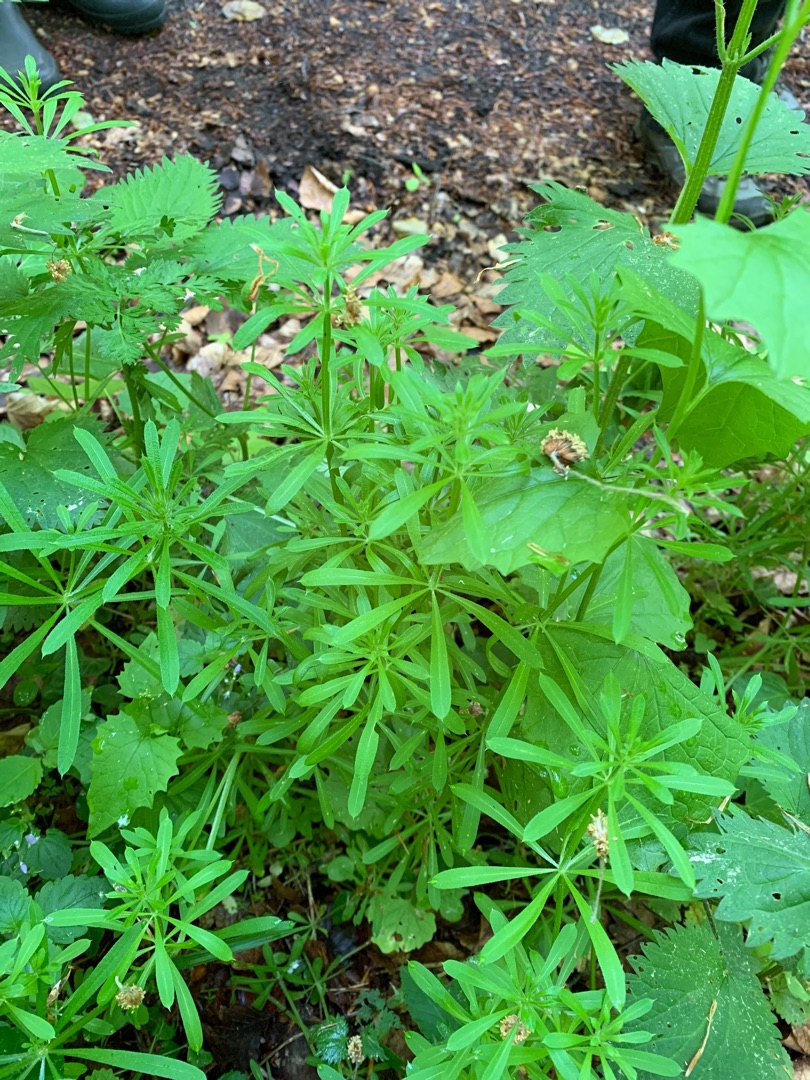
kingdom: Plantae
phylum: Tracheophyta
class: Magnoliopsida
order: Gentianales
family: Rubiaceae
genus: Galium
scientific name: Galium aparine
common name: Burre-snerre
